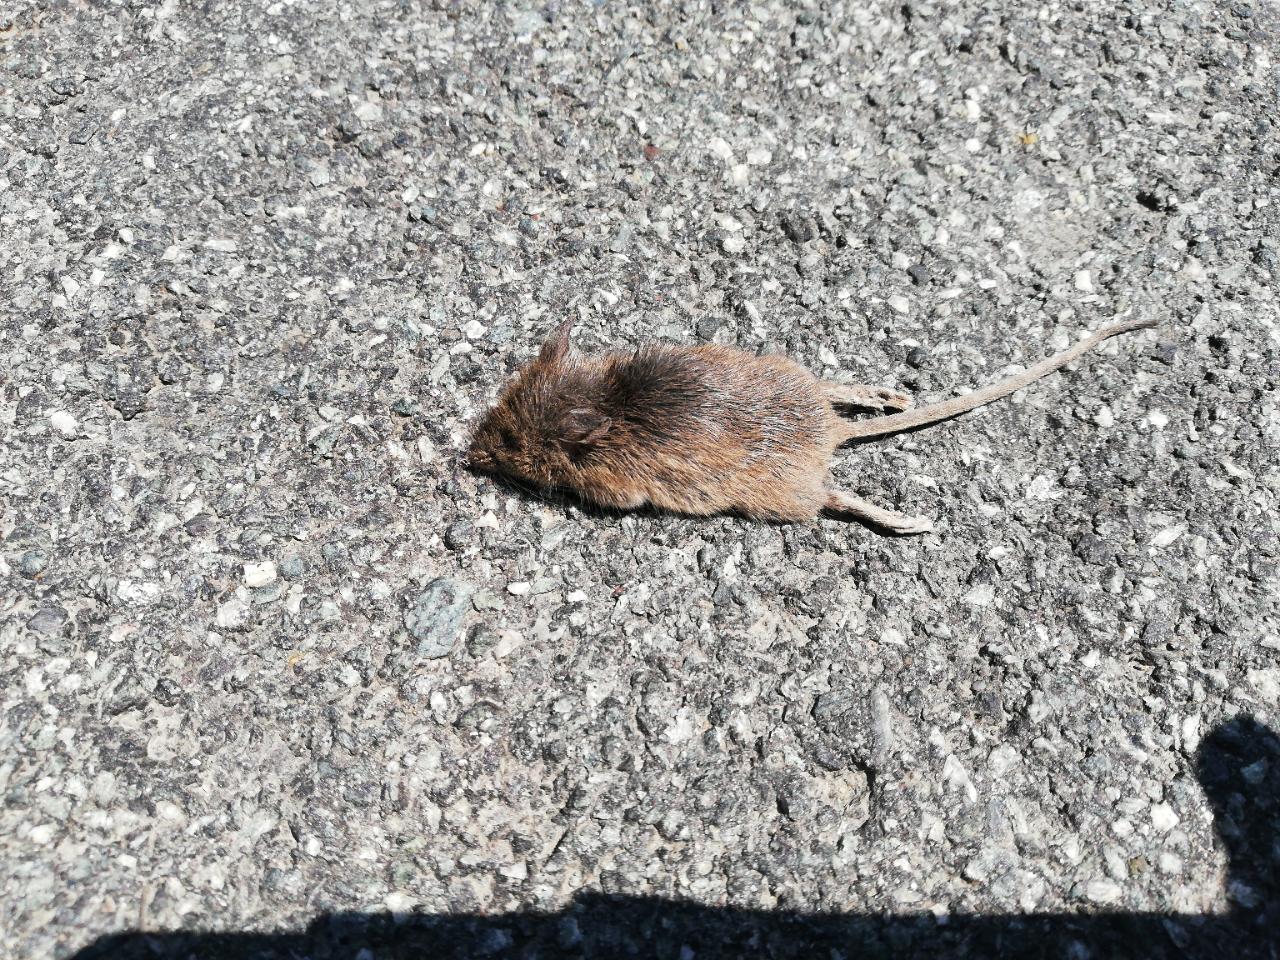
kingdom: Animalia
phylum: Chordata
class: Mammalia
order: Rodentia
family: Muridae
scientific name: Muridae
